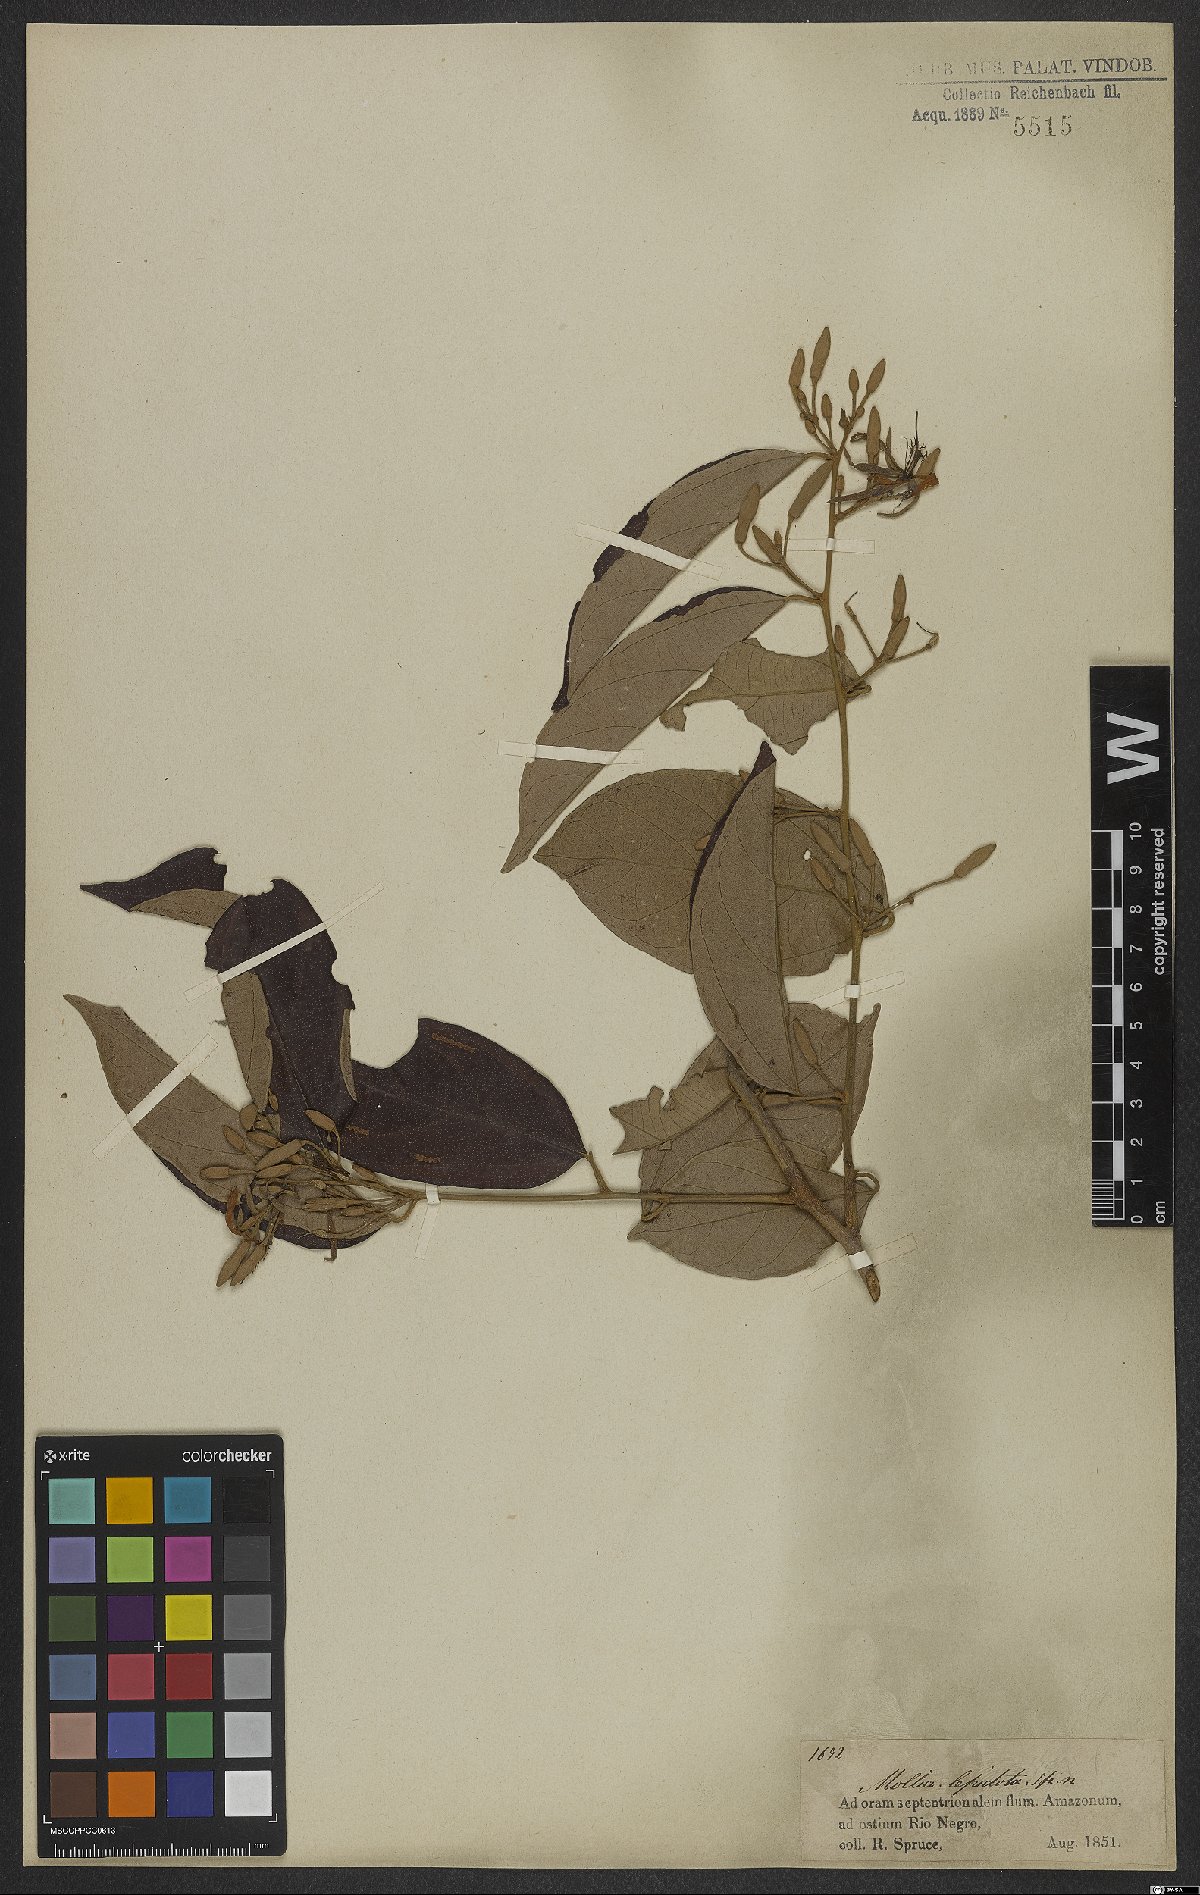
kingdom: Plantae
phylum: Tracheophyta
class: Magnoliopsida
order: Malvales
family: Malvaceae
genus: Mollia
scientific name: Mollia lepidota
